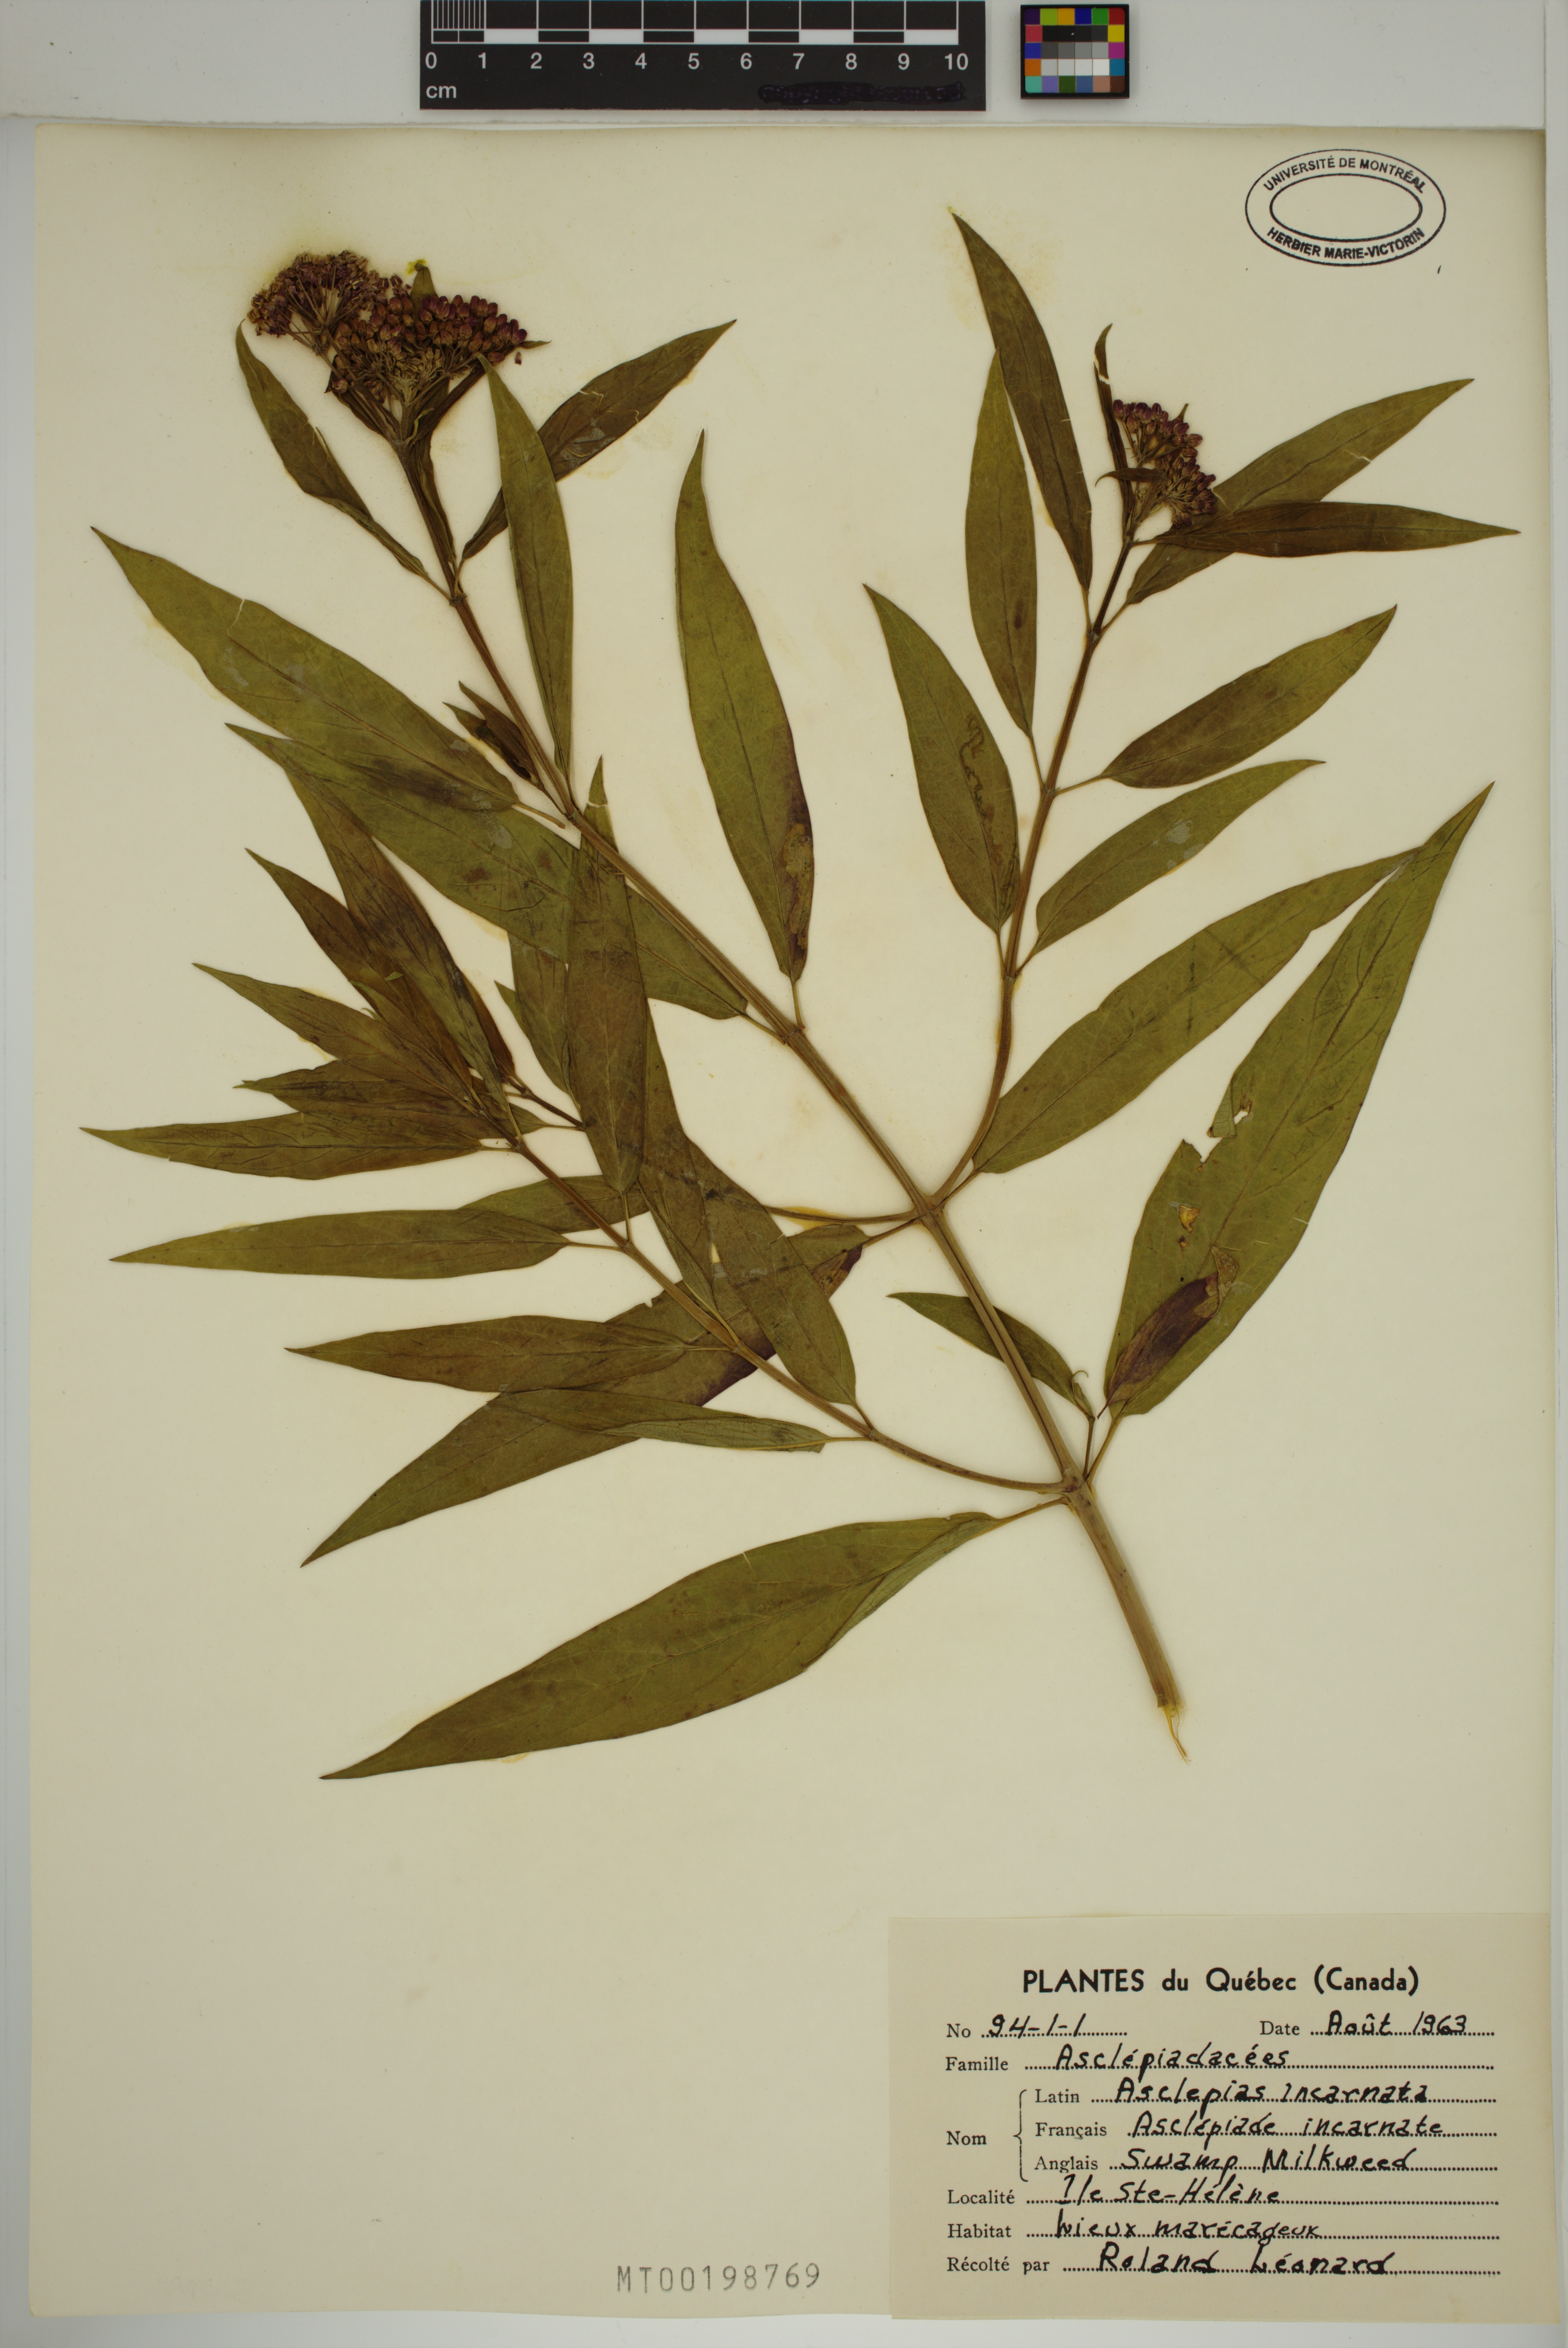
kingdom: Plantae
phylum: Tracheophyta
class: Magnoliopsida
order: Gentianales
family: Apocynaceae
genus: Asclepias
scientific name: Asclepias incarnata
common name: Swamp milkweed
